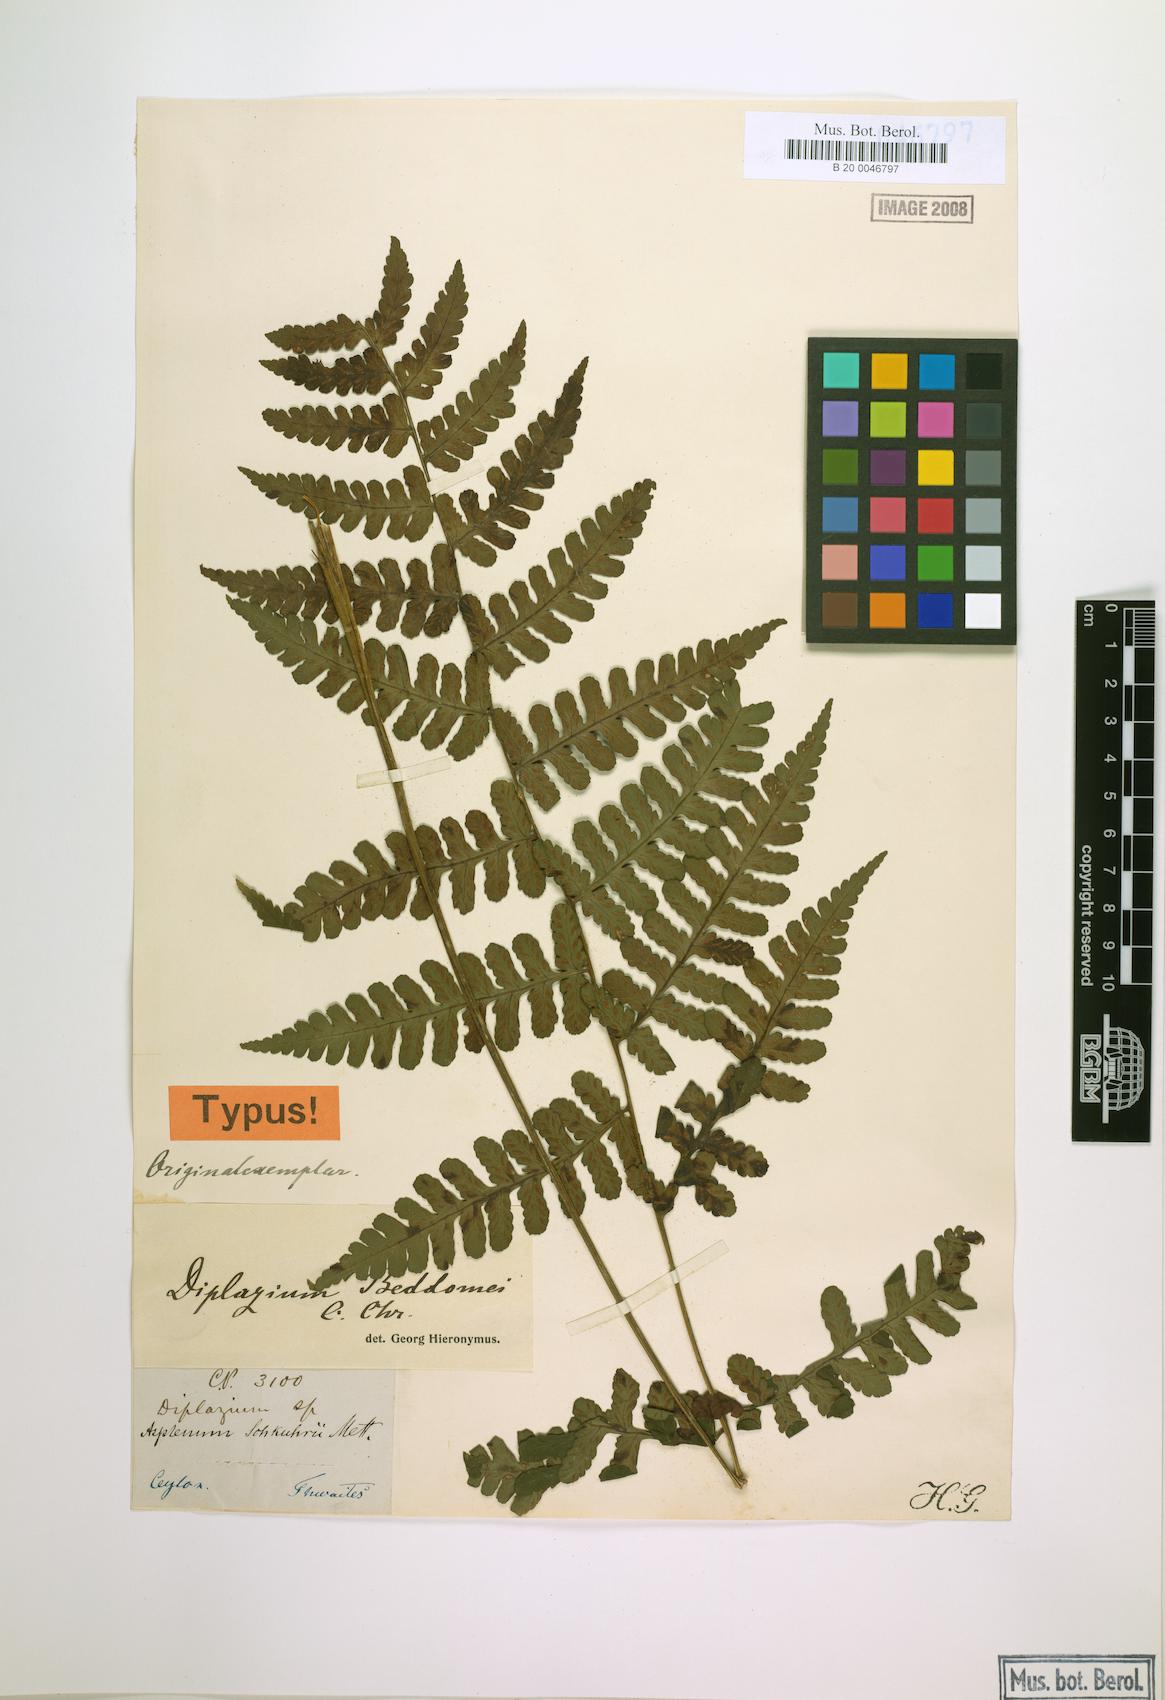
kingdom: Plantae
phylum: Tracheophyta
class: Polypodiopsida
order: Polypodiales
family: Athyriaceae
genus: Diplazium
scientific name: Diplazium beddomei
